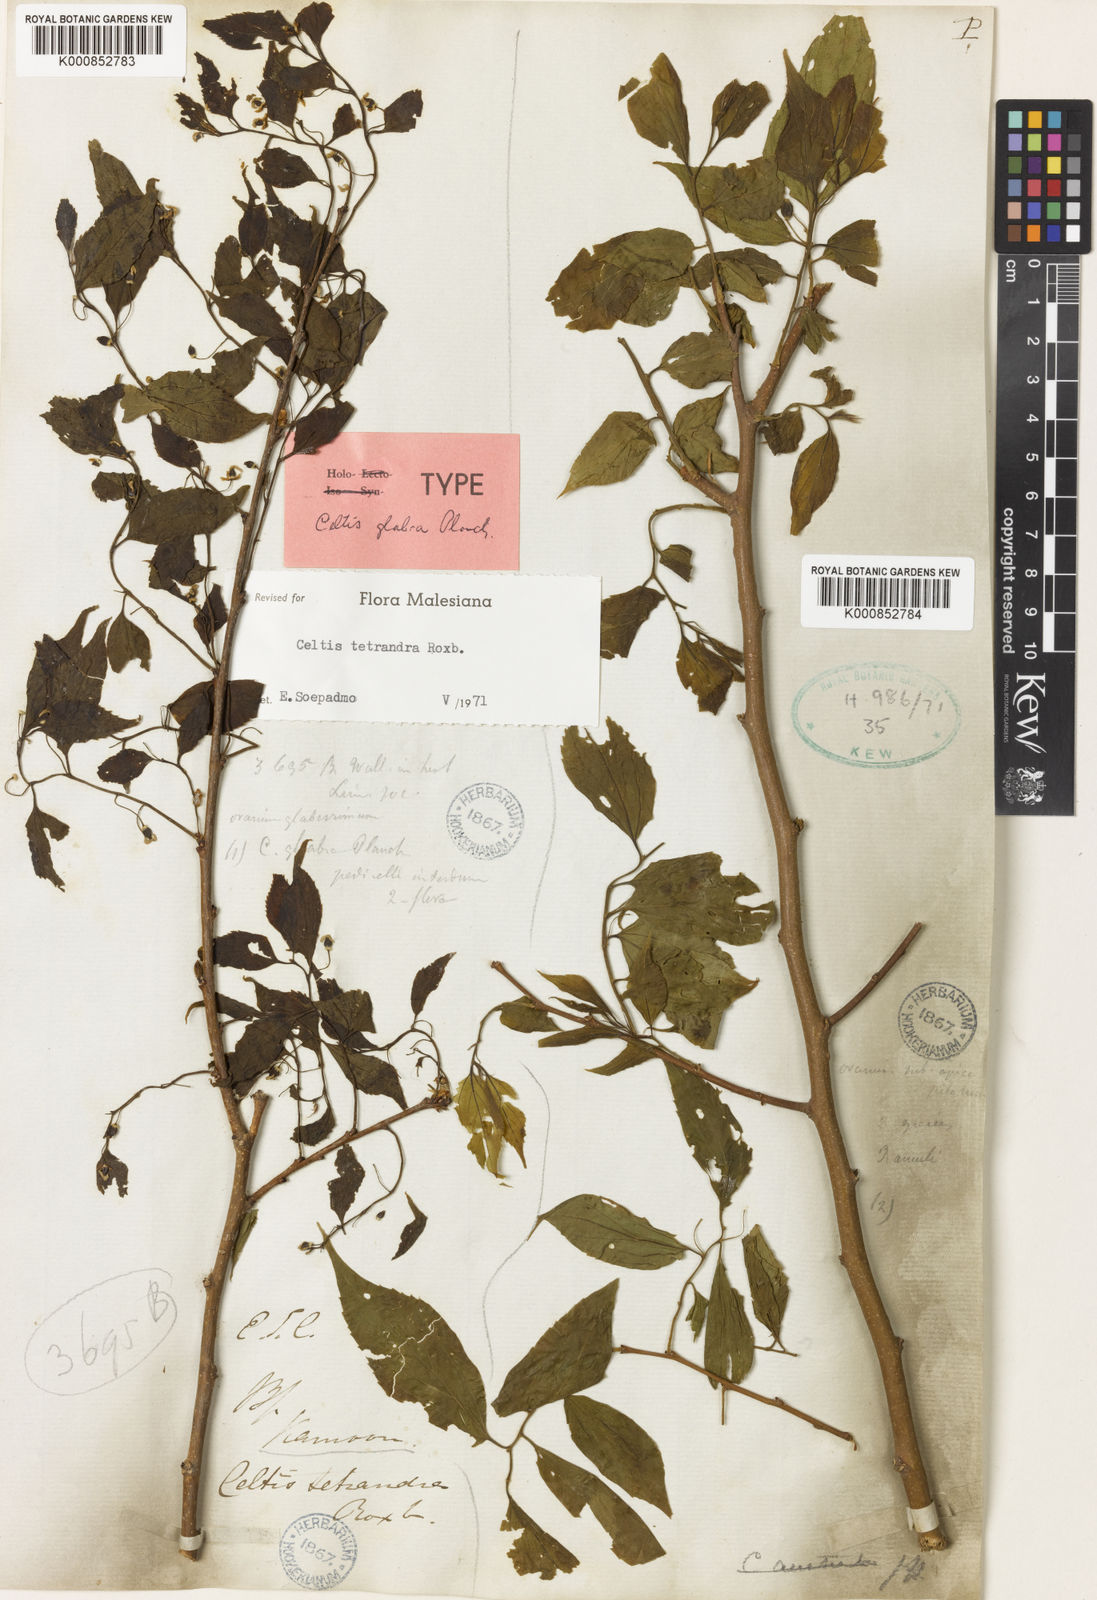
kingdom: Plantae
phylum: Tracheophyta
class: Magnoliopsida
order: Rosales
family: Cannabaceae
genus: Celtis
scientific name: Celtis tetrandra
